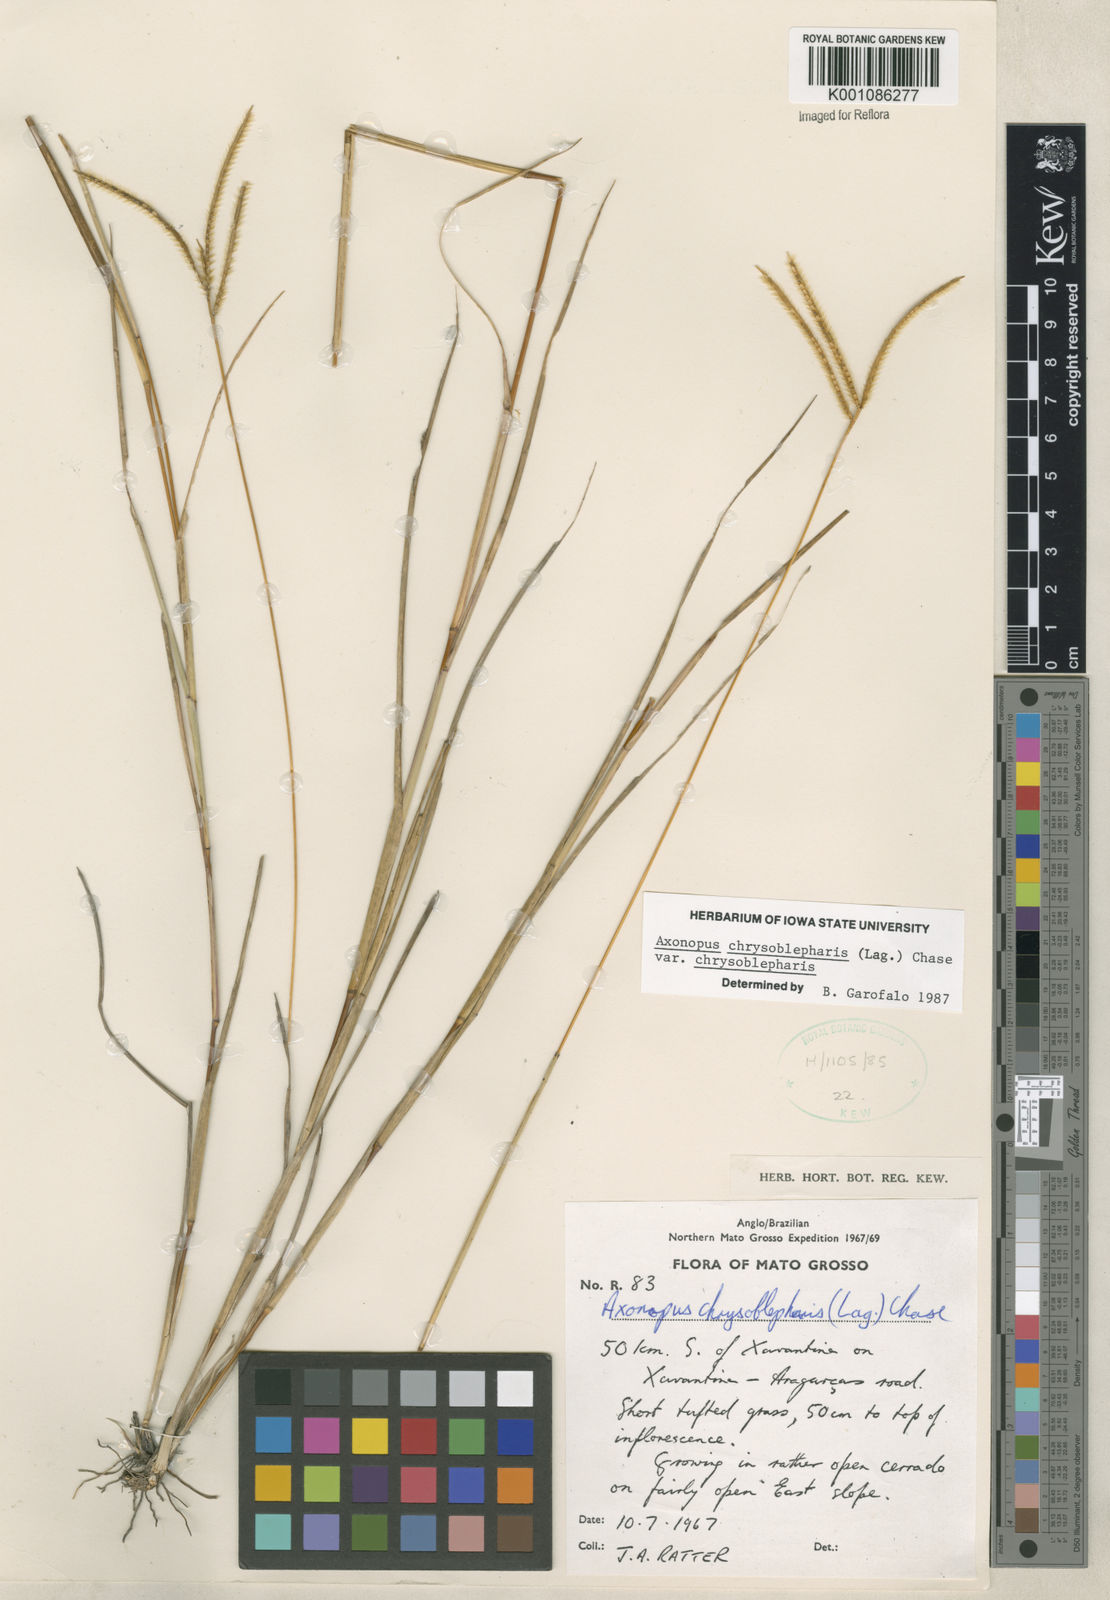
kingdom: Plantae
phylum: Tracheophyta
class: Liliopsida
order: Poales
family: Poaceae
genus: Axonopus
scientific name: Axonopus chrysoblepharis
